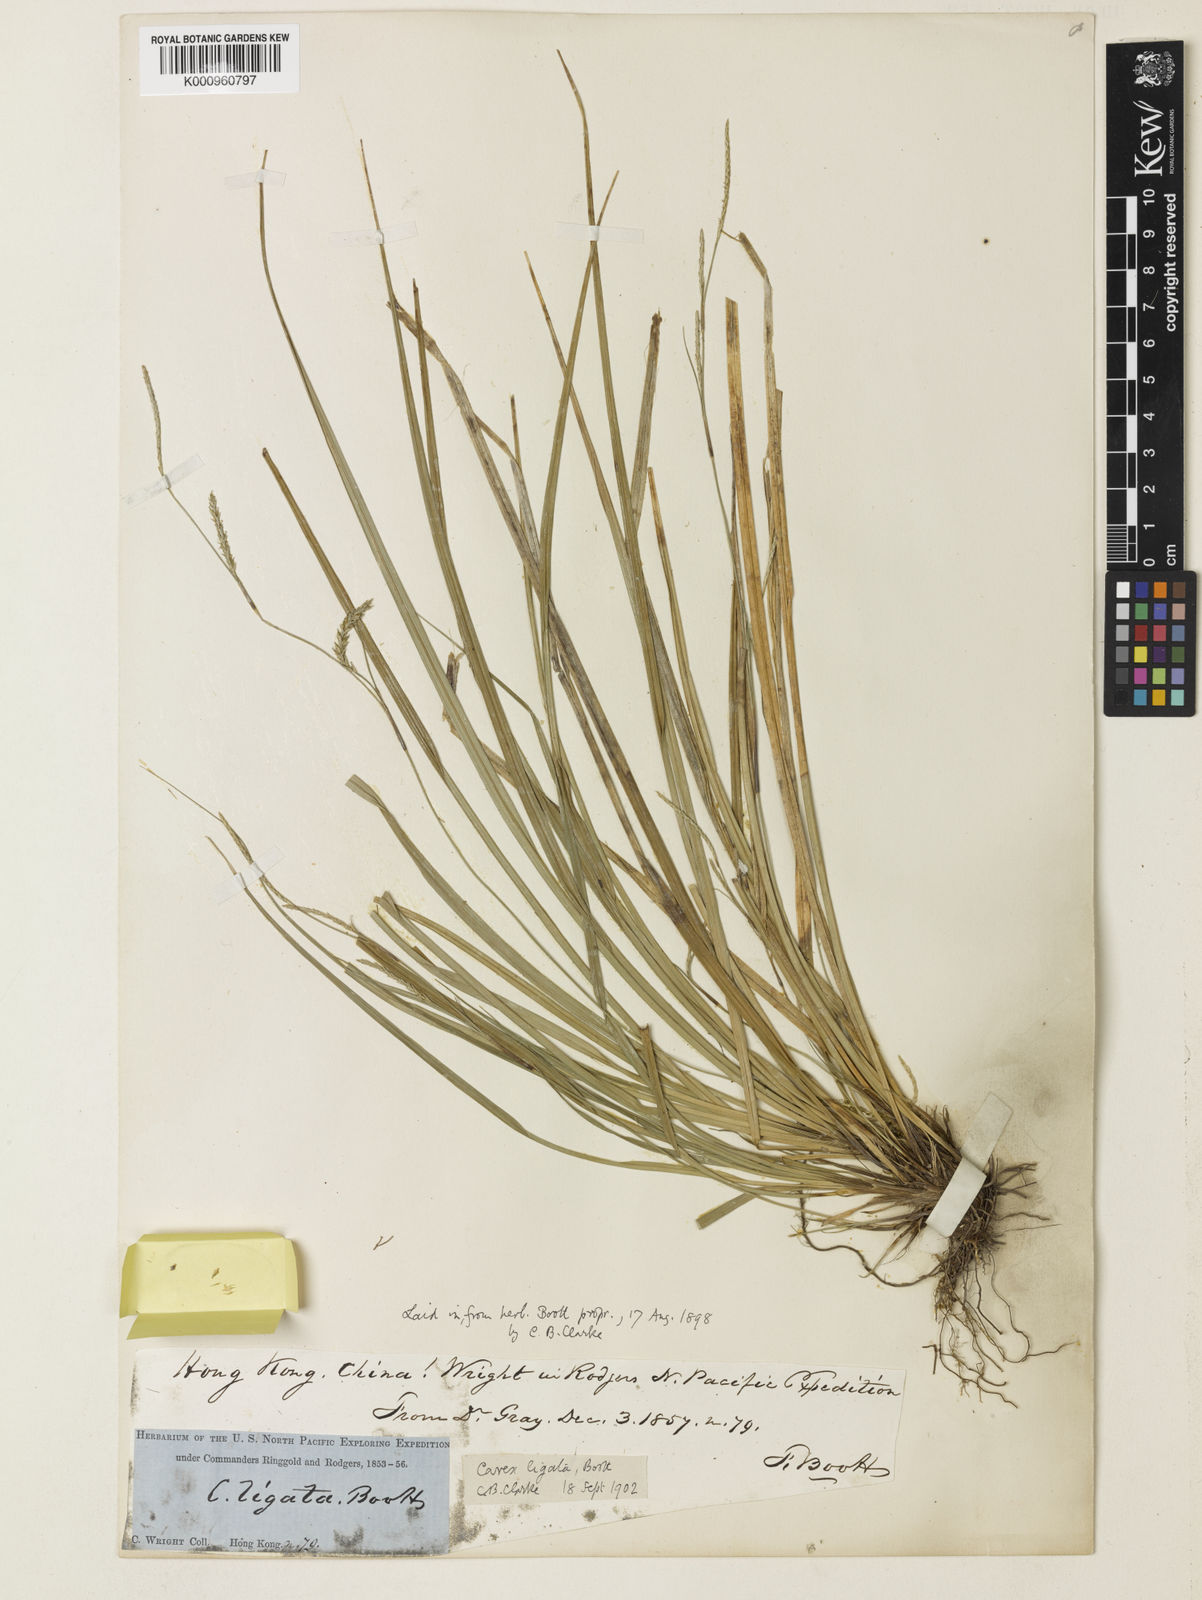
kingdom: Plantae
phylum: Tracheophyta
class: Liliopsida
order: Poales
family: Cyperaceae
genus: Carex
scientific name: Carex ligata
